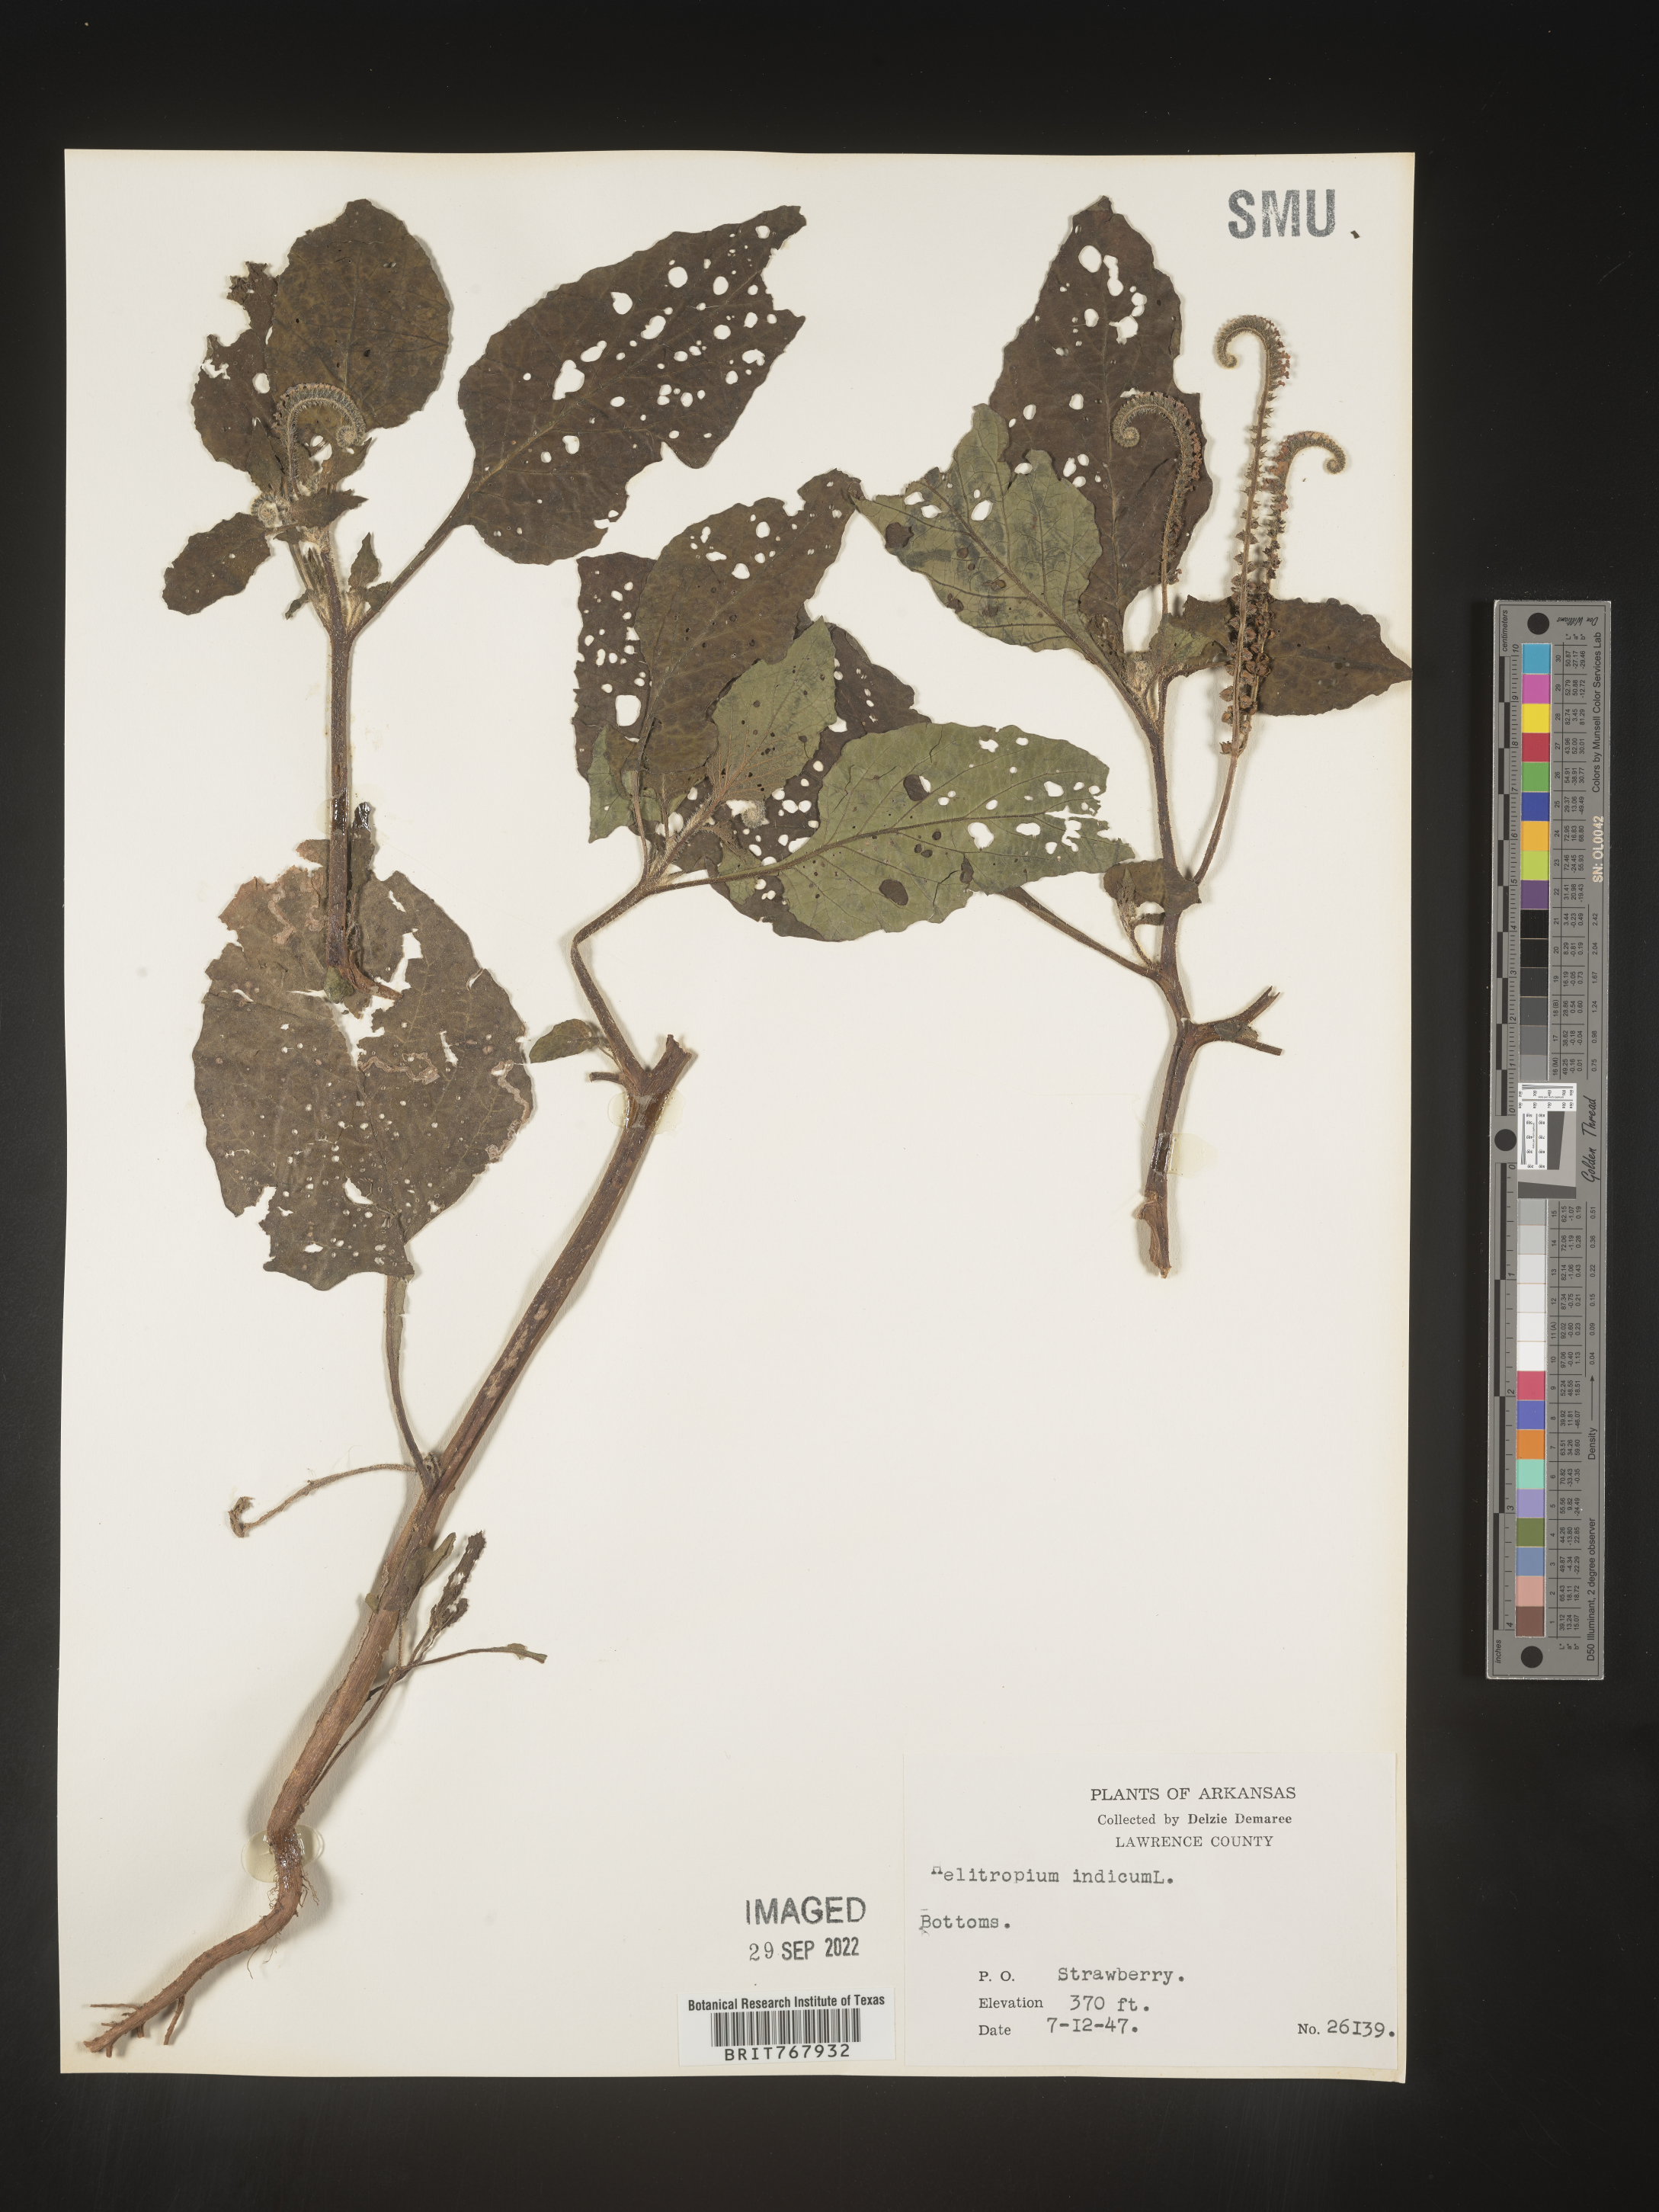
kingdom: Plantae
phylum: Tracheophyta
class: Magnoliopsida
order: Boraginales
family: Heliotropiaceae
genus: Heliotropium
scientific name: Heliotropium indicum
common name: Indian heliotrope
